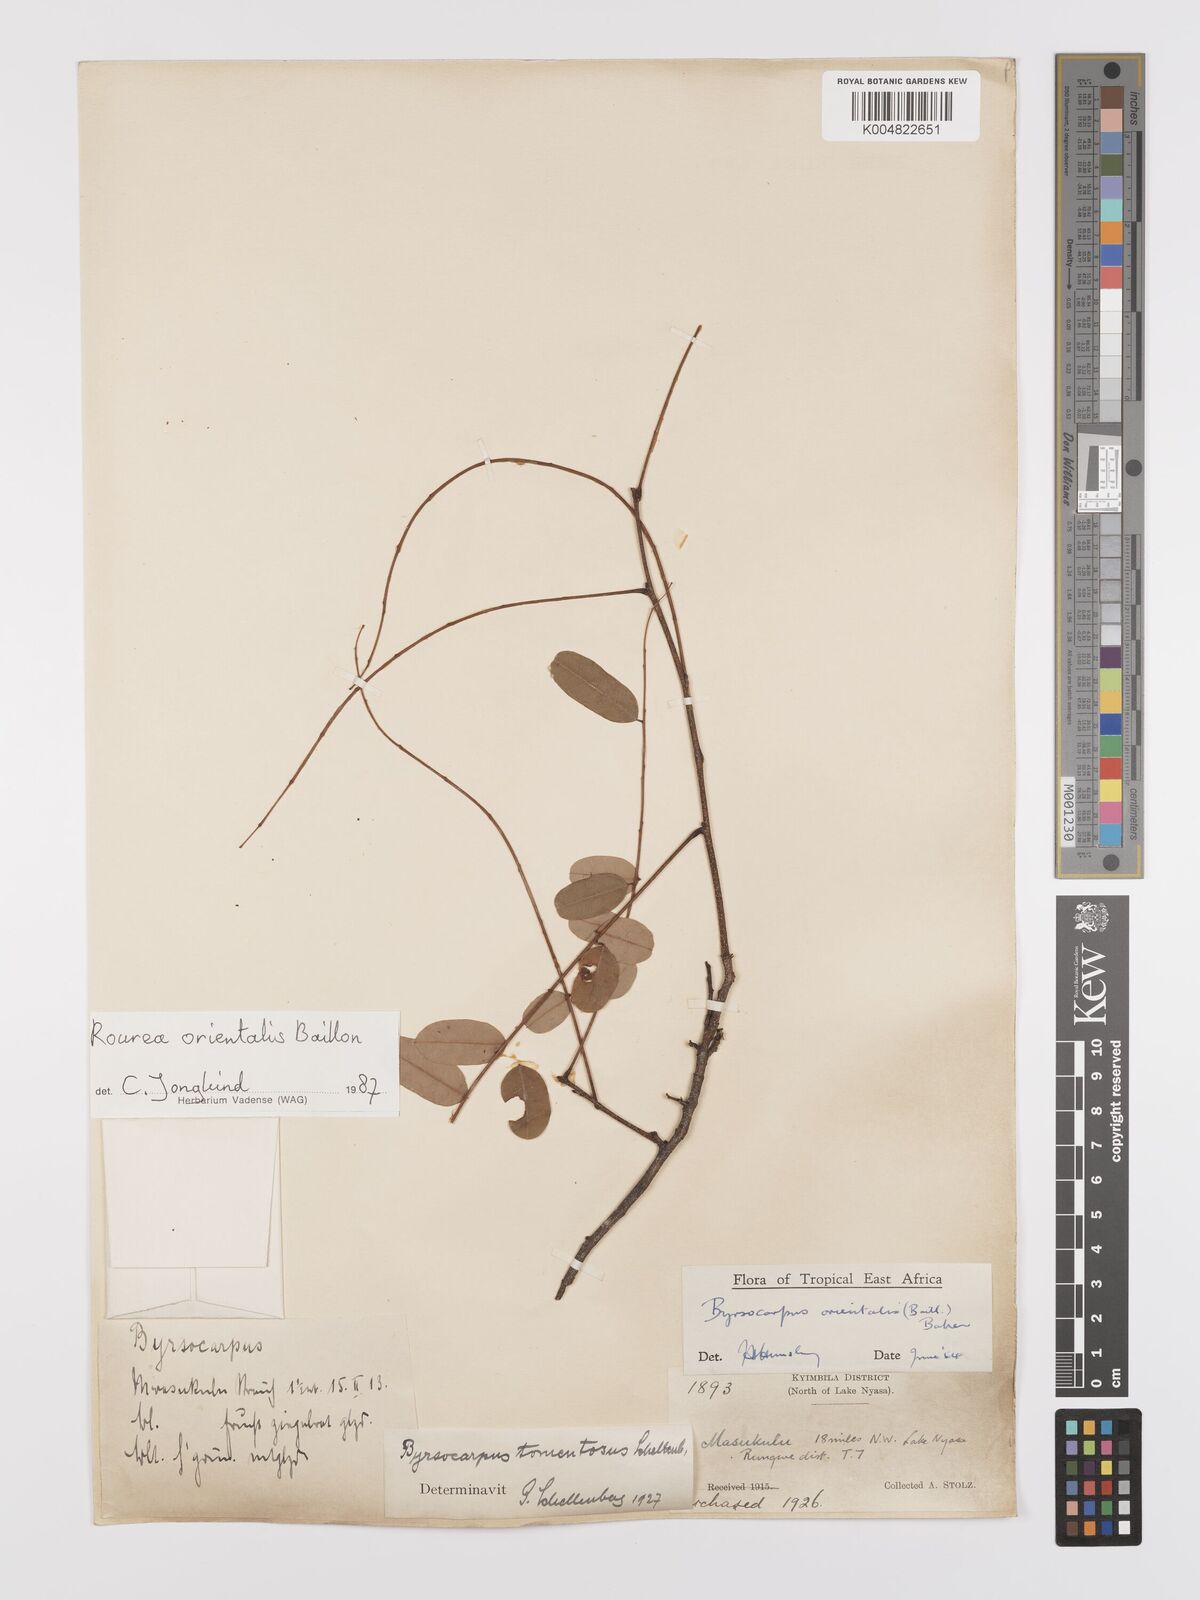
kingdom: Plantae
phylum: Tracheophyta
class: Magnoliopsida
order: Oxalidales
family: Connaraceae
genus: Rourea
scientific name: Rourea orientalis
